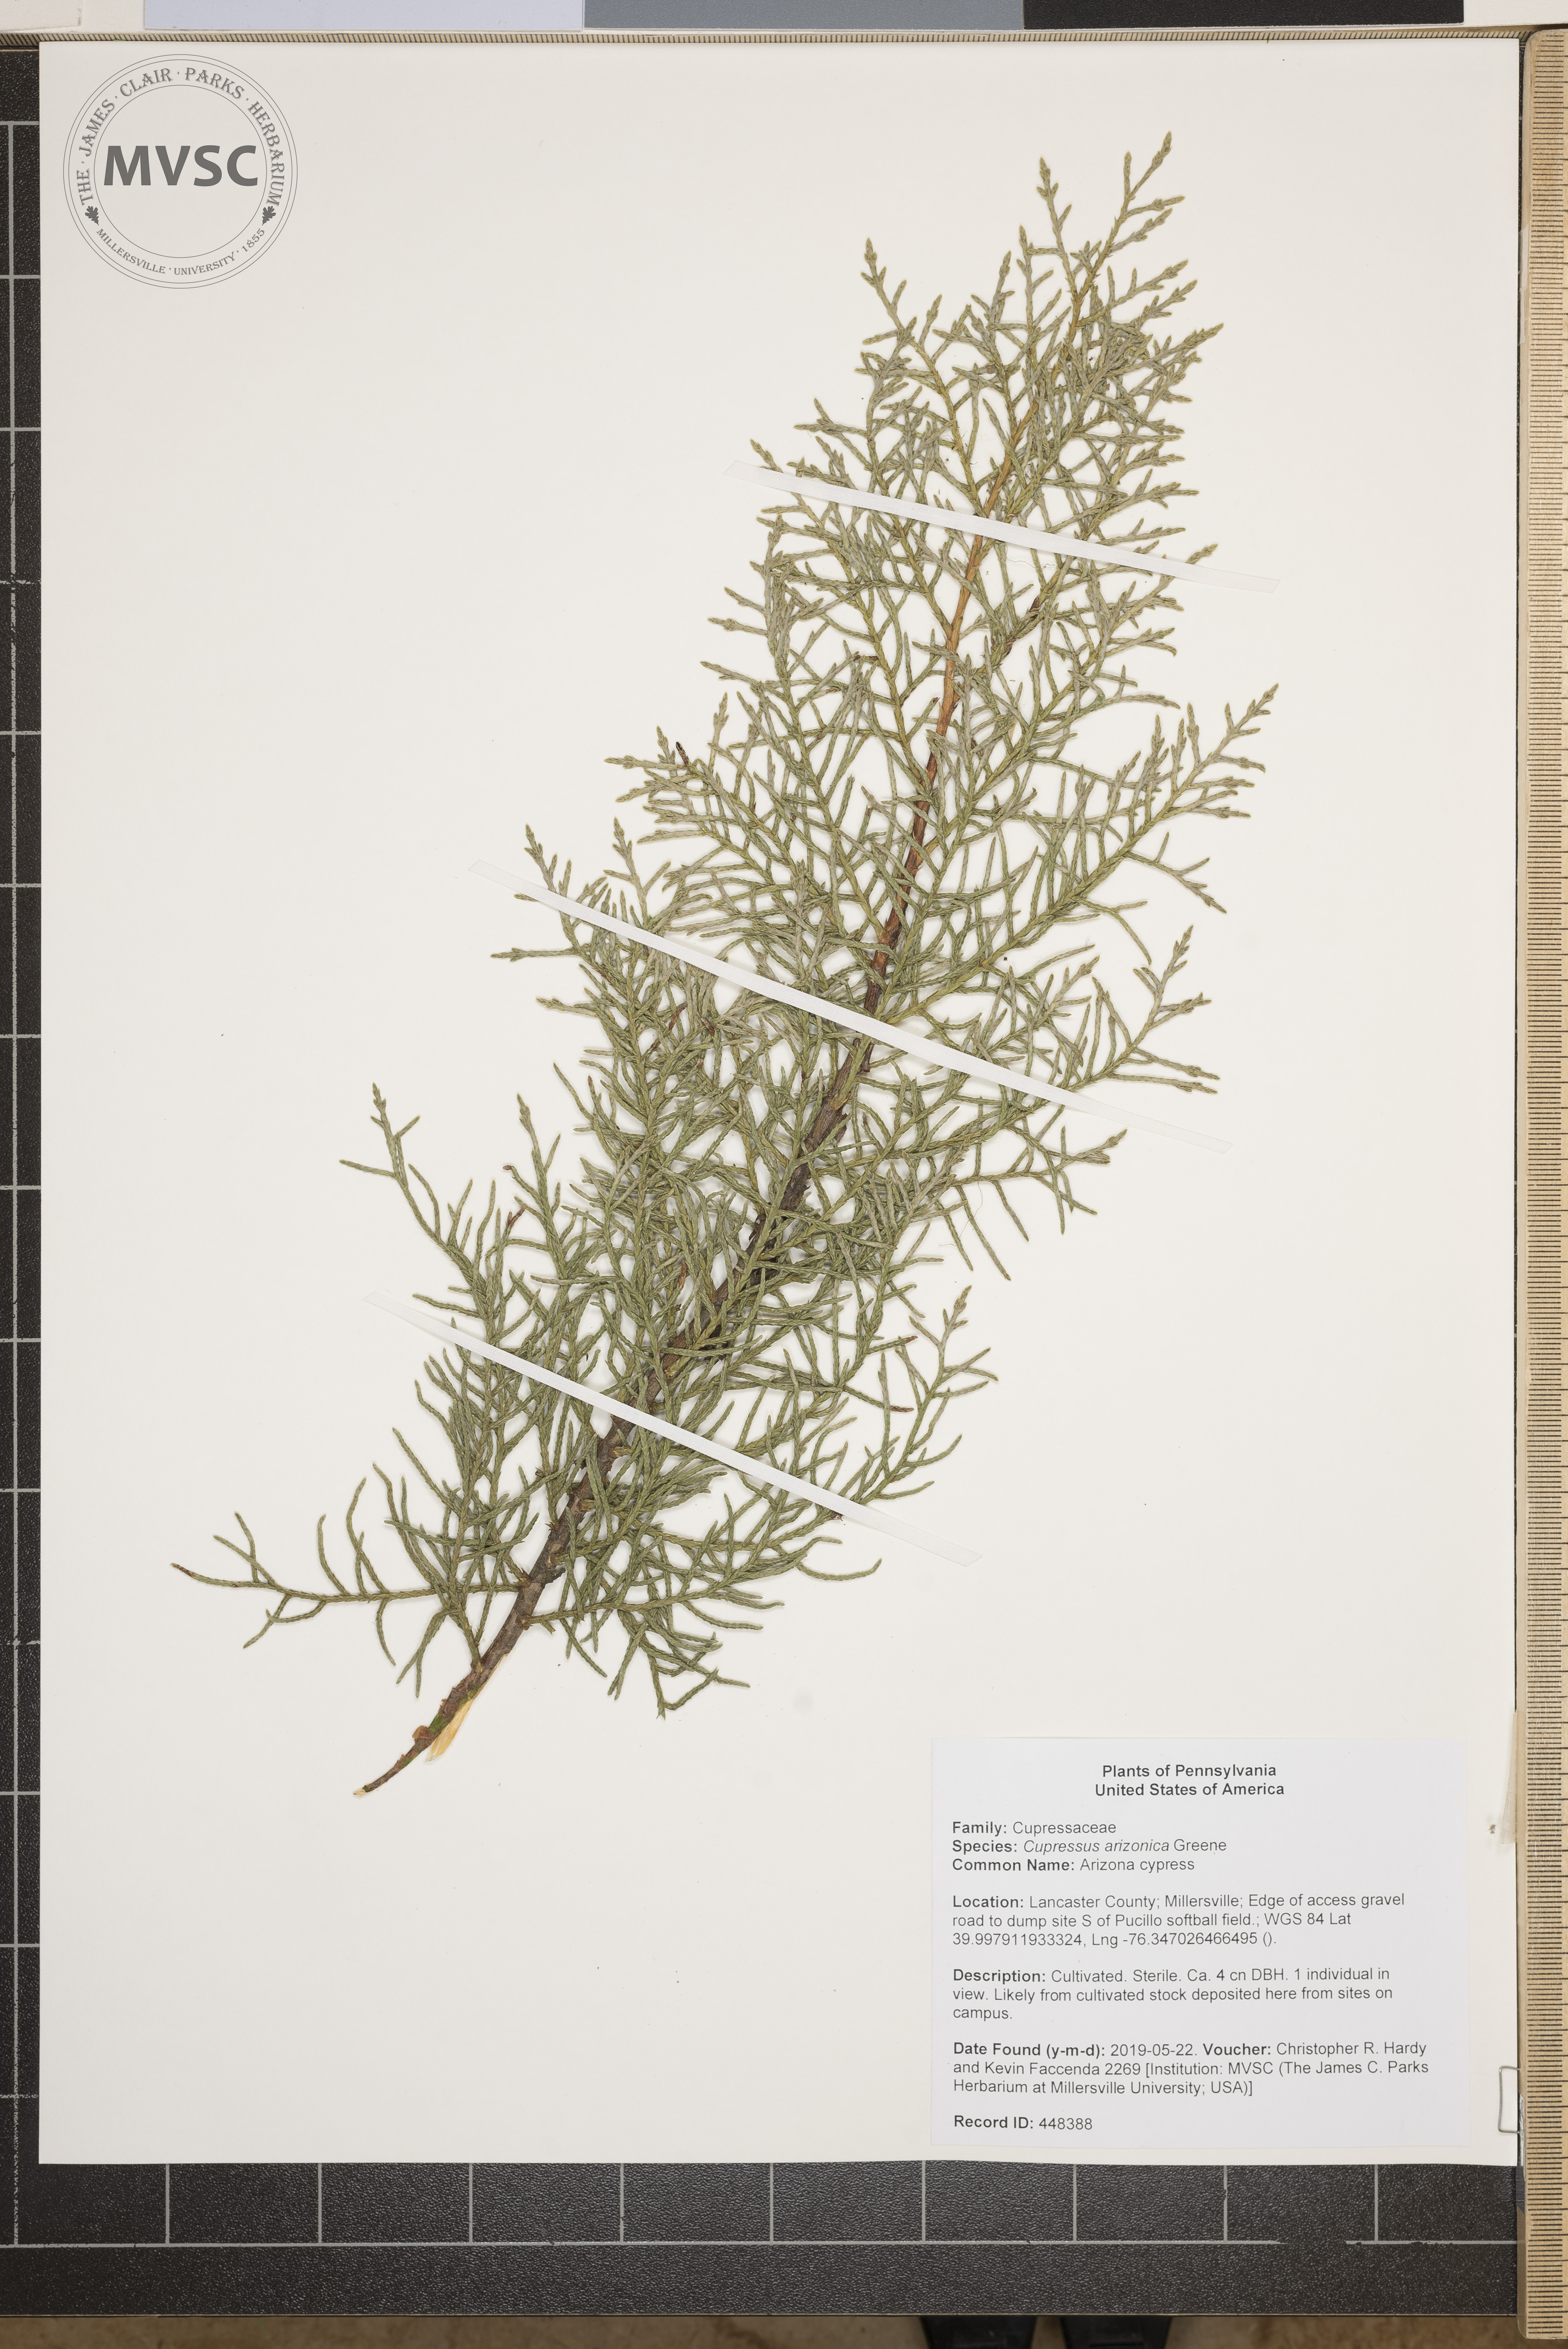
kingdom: Plantae
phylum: Tracheophyta
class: Pinopsida
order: Pinales
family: Cupressaceae
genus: Cupressus
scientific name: Cupressus arizonica
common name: Arizona cypress
